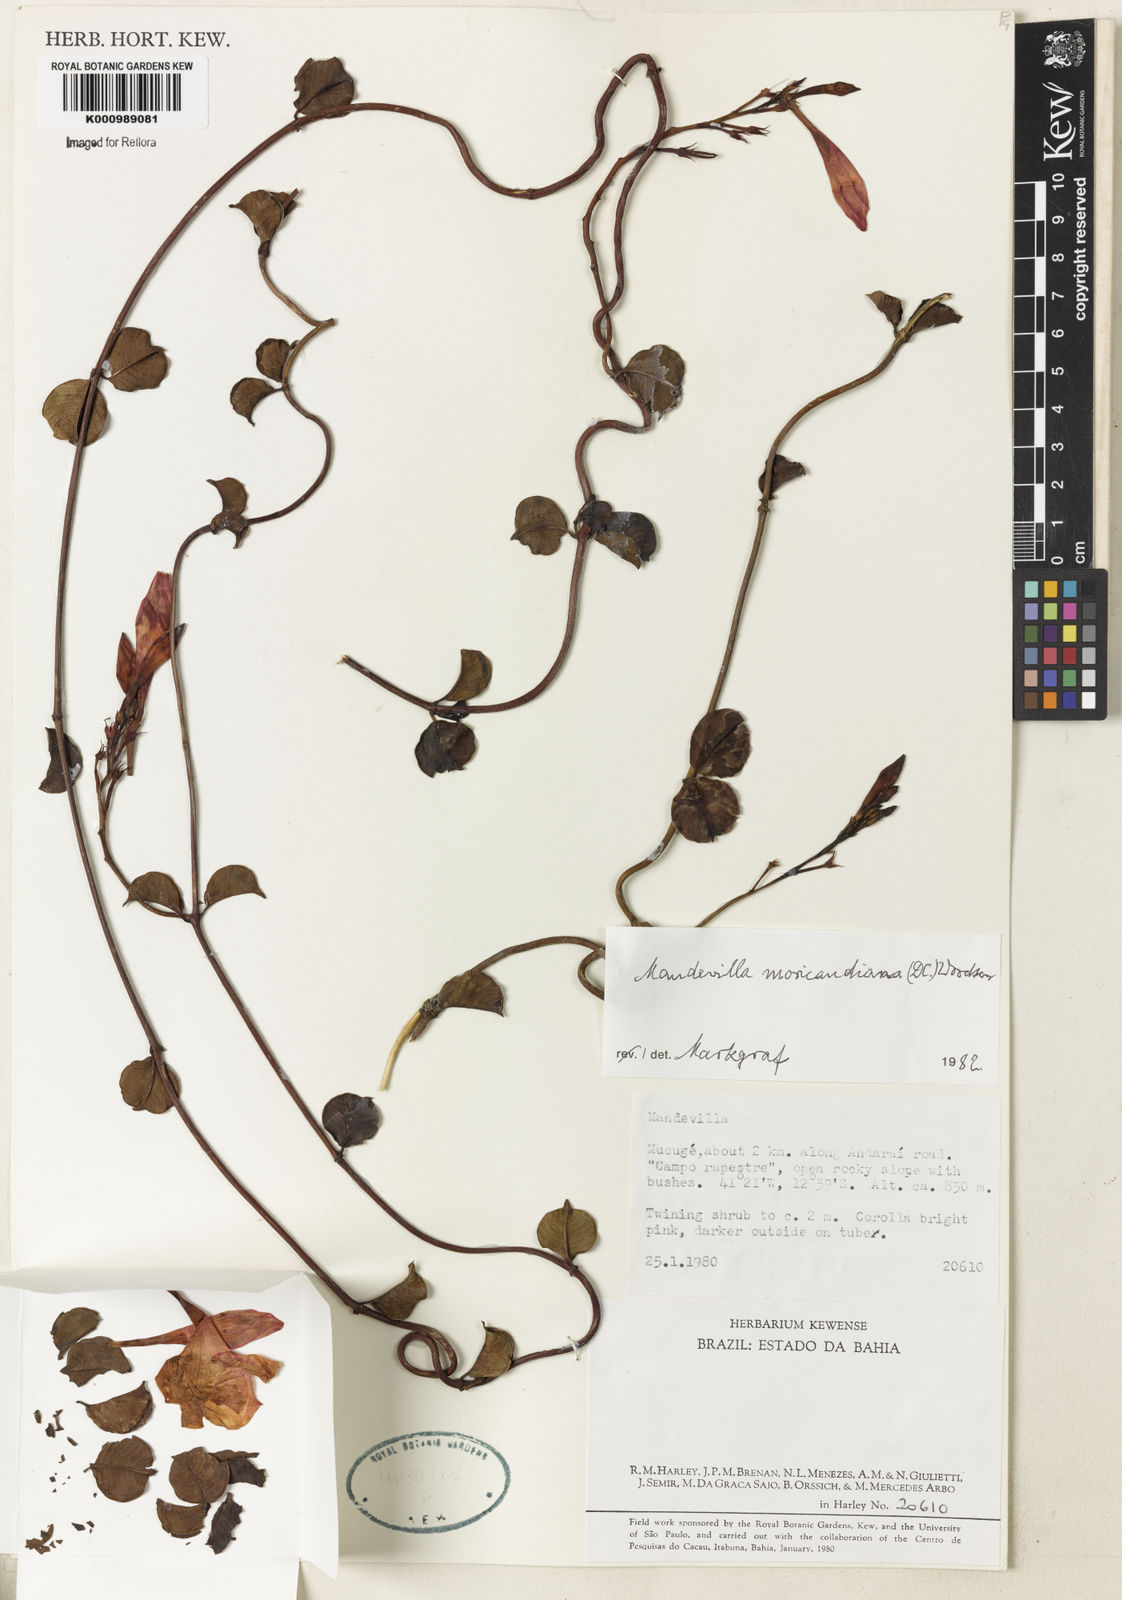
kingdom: Plantae
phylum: Tracheophyta
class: Magnoliopsida
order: Gentianales
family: Apocynaceae
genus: Mandevilla
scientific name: Mandevilla bahiensis
